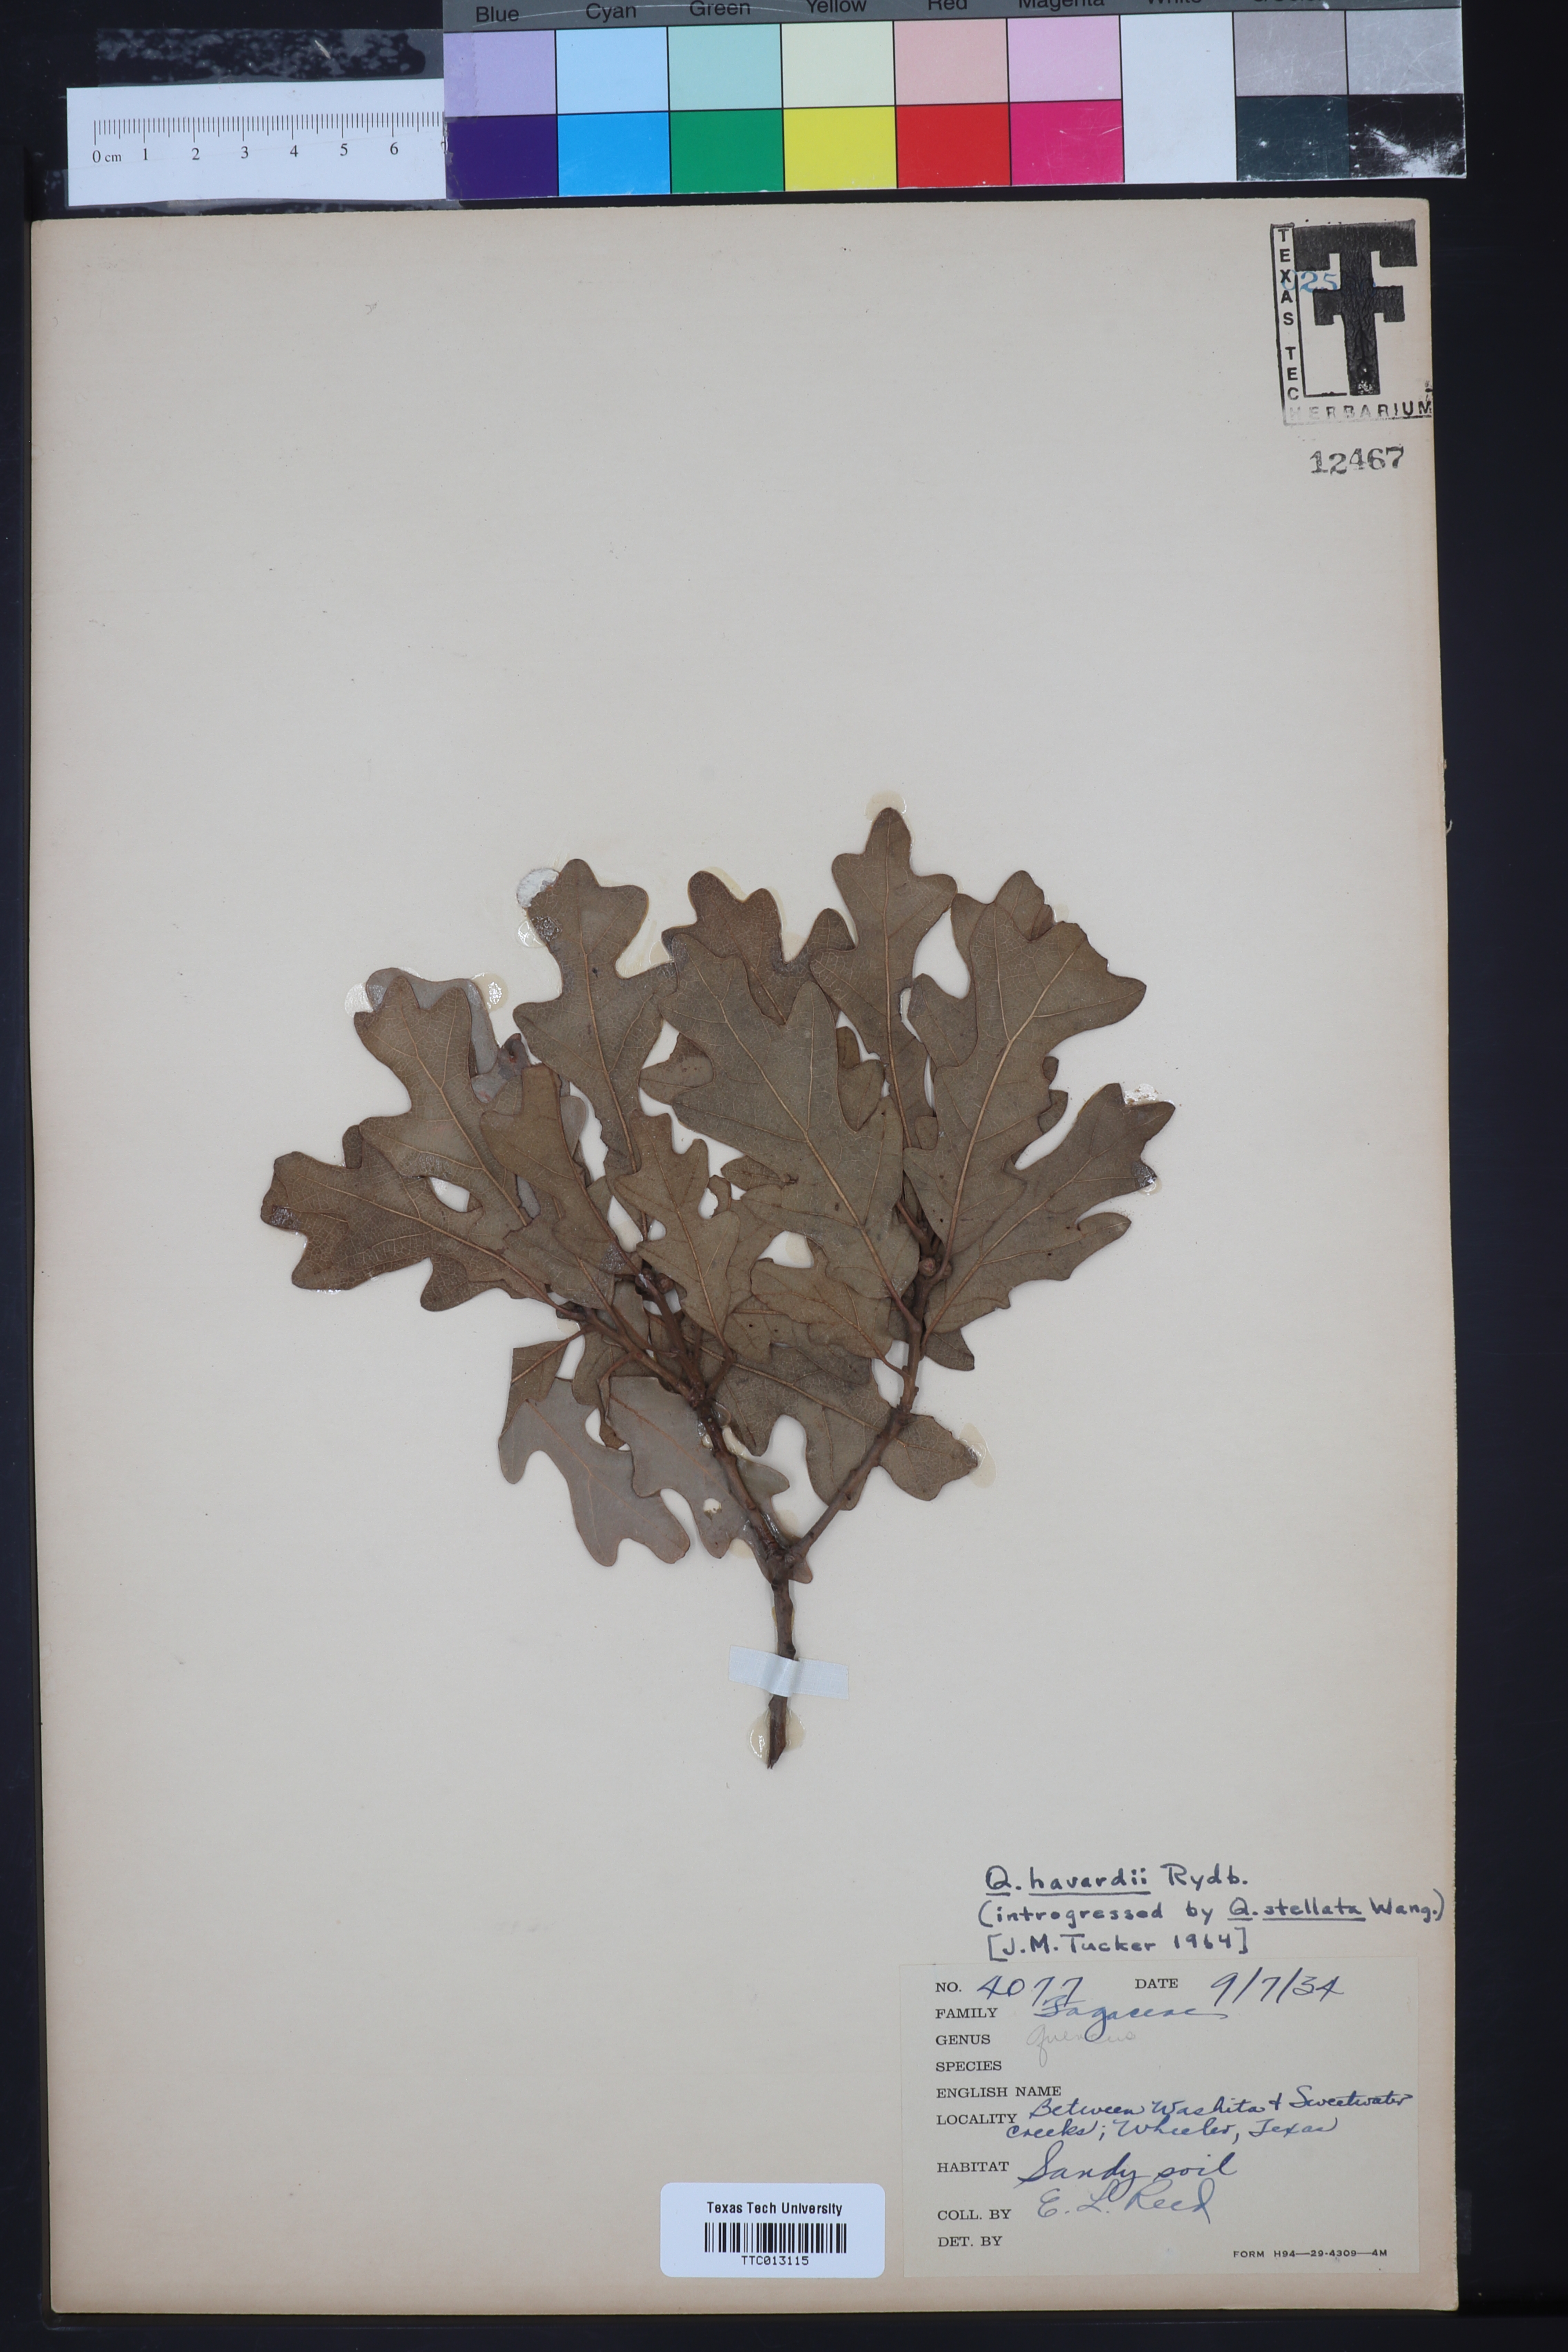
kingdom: Plantae
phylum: Tracheophyta
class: Magnoliopsida
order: Fagales
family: Fagaceae
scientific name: Fagaceae
